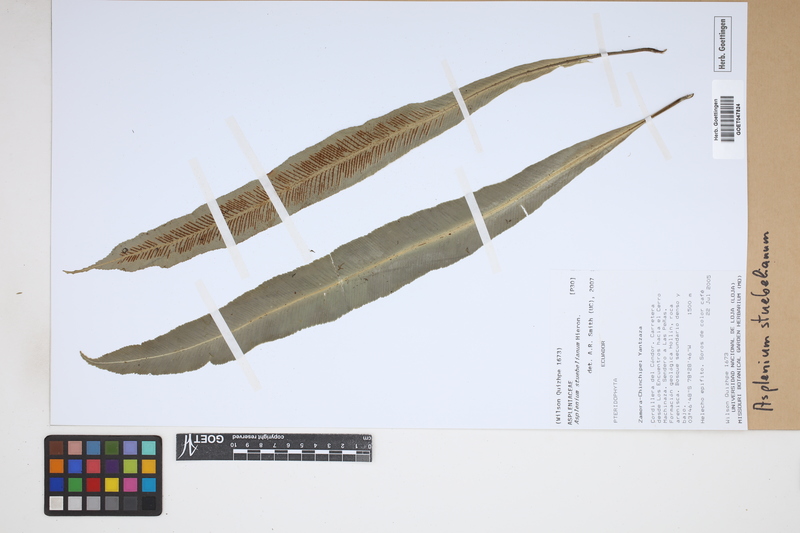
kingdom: Plantae
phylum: Tracheophyta
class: Polypodiopsida
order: Polypodiales
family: Aspleniaceae
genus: Asplenium
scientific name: Asplenium stuebelianum
